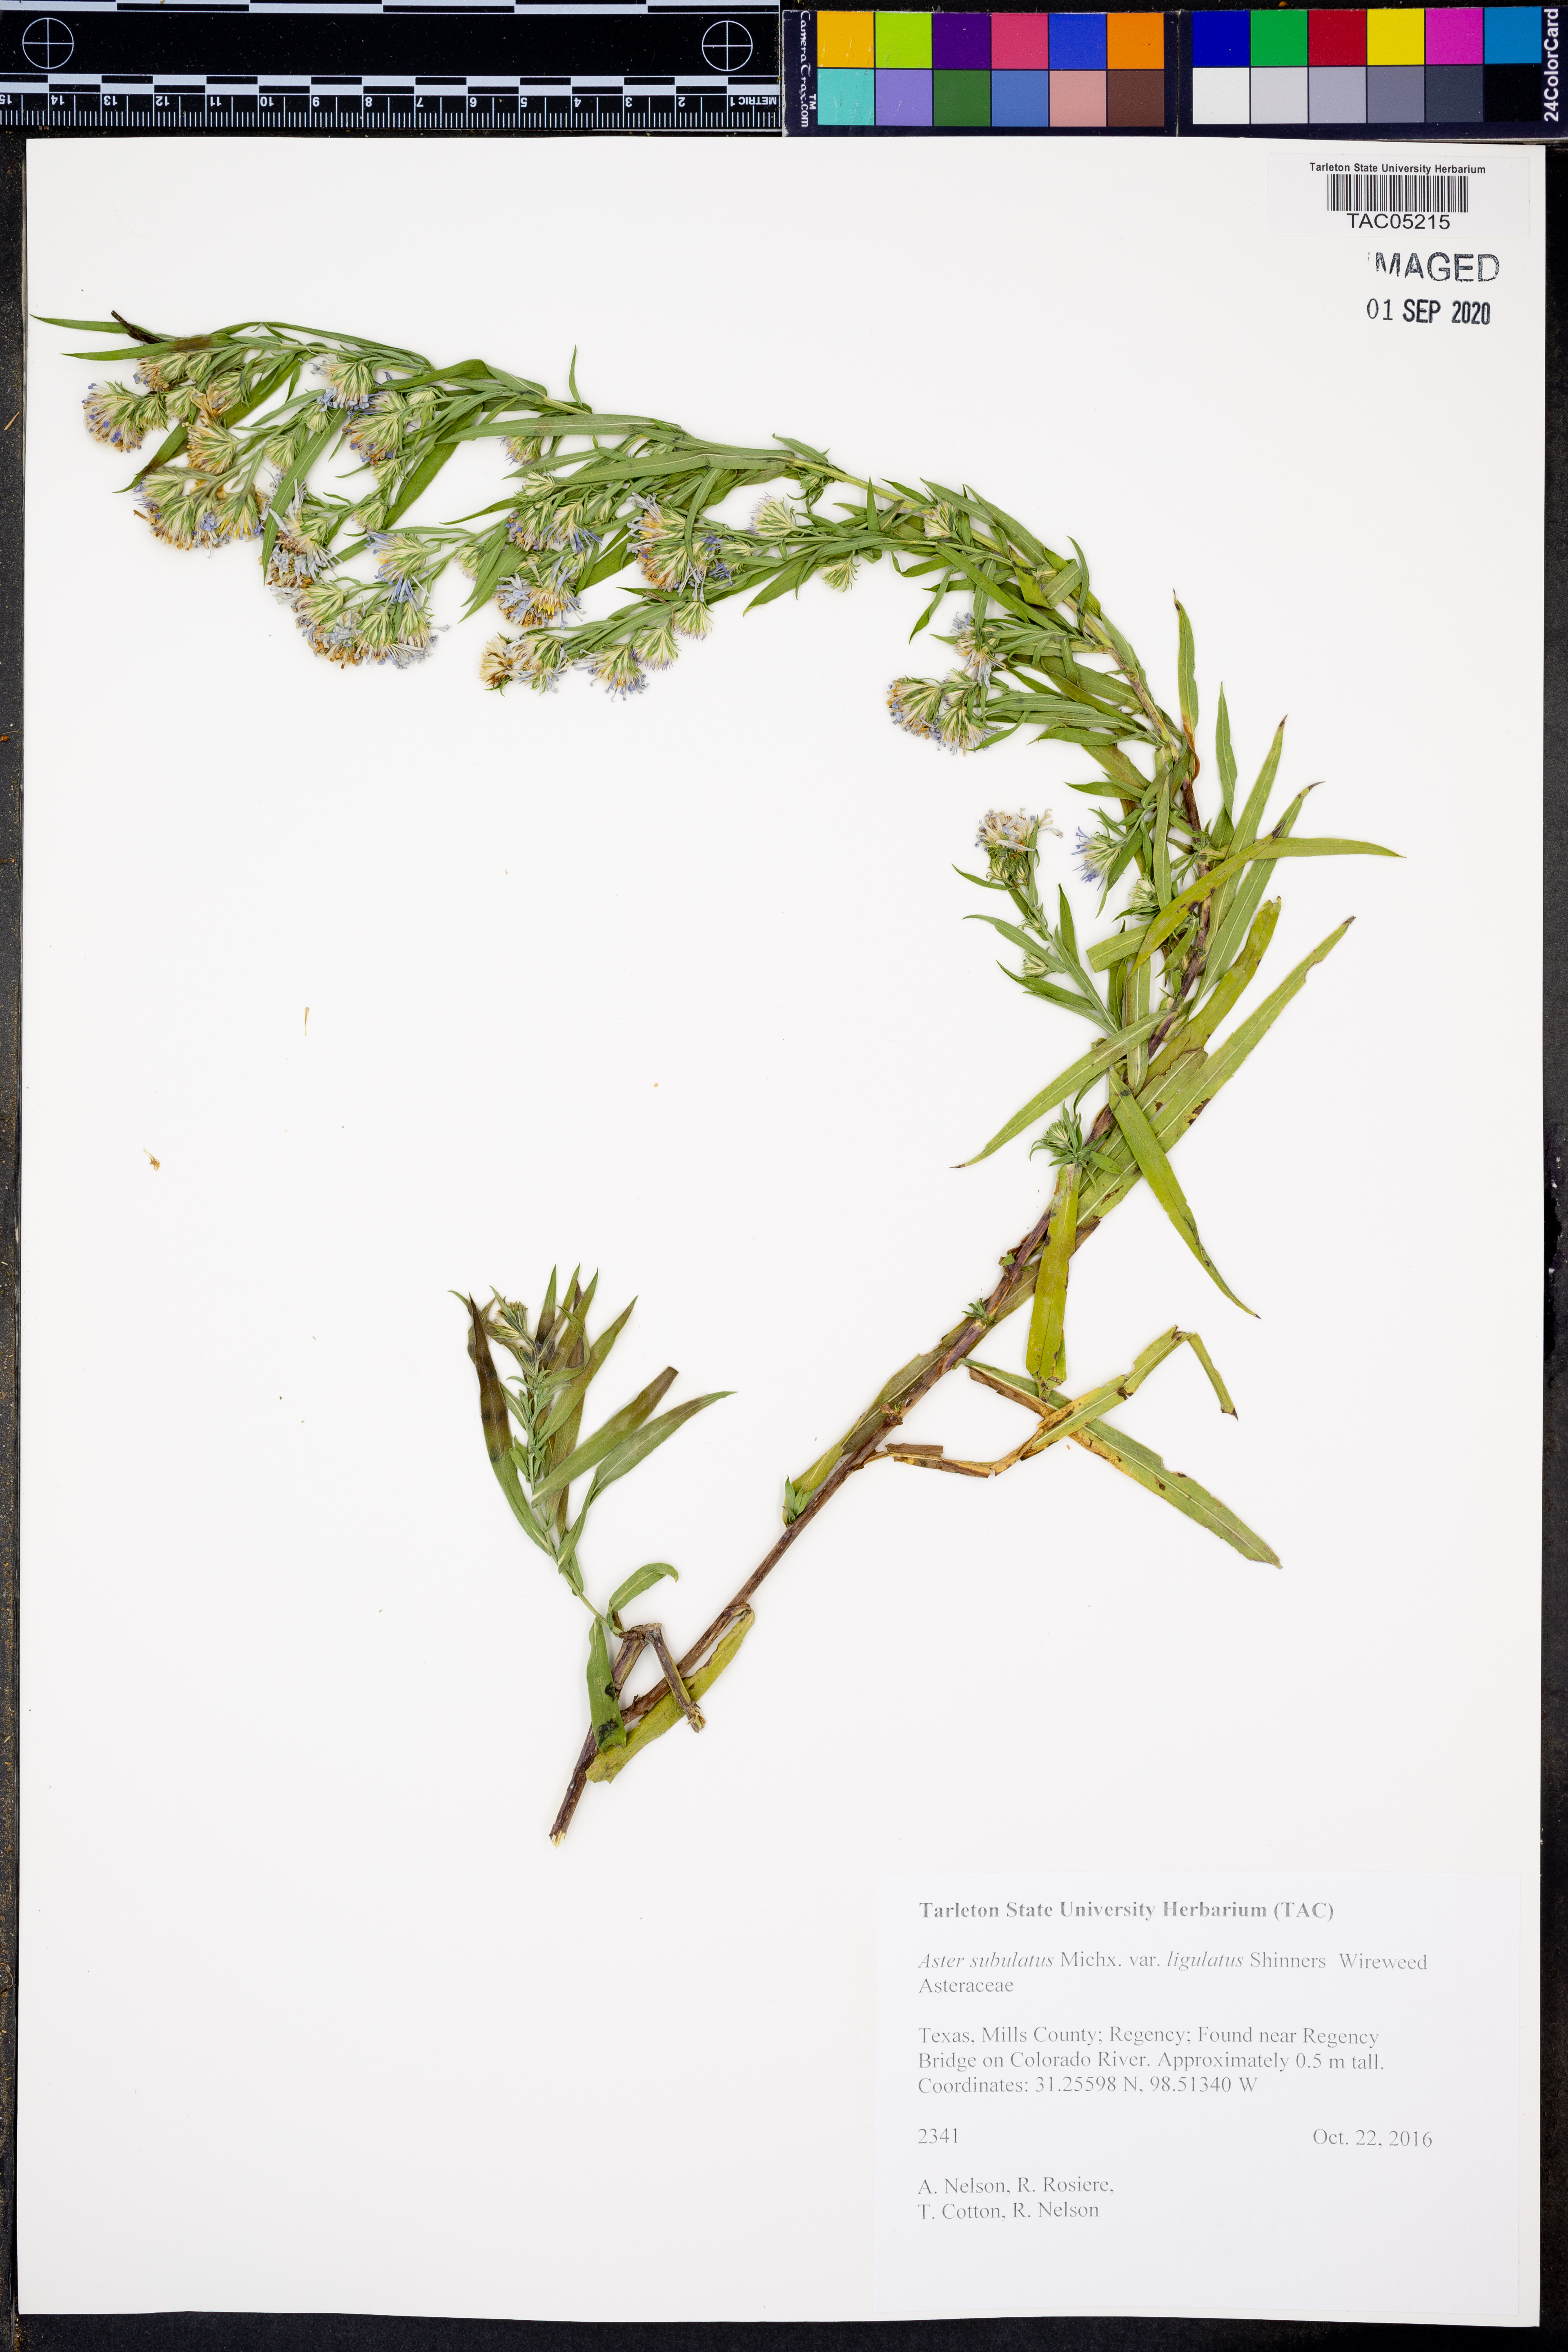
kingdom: Plantae
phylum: Tracheophyta
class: Magnoliopsida
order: Asterales
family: Asteraceae
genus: Symphyotrichum
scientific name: Symphyotrichum divaricatum
